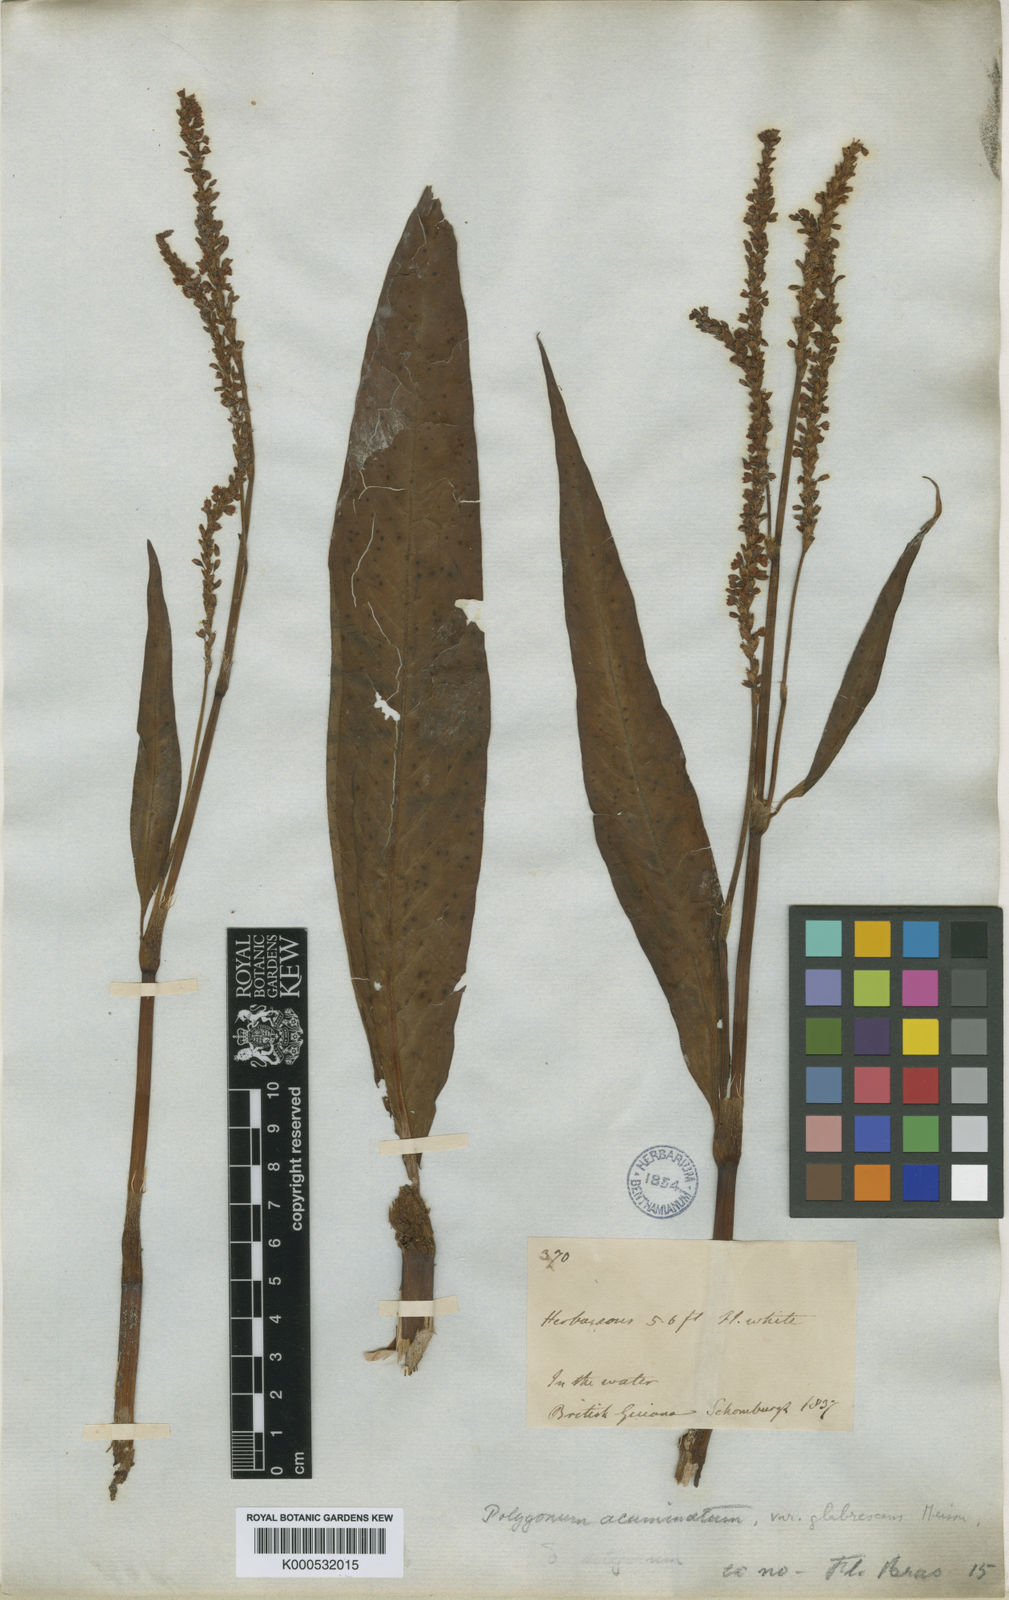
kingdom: Plantae
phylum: Tracheophyta
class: Magnoliopsida
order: Caryophyllales
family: Polygonaceae
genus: Persicaria
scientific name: Persicaria acuminata
